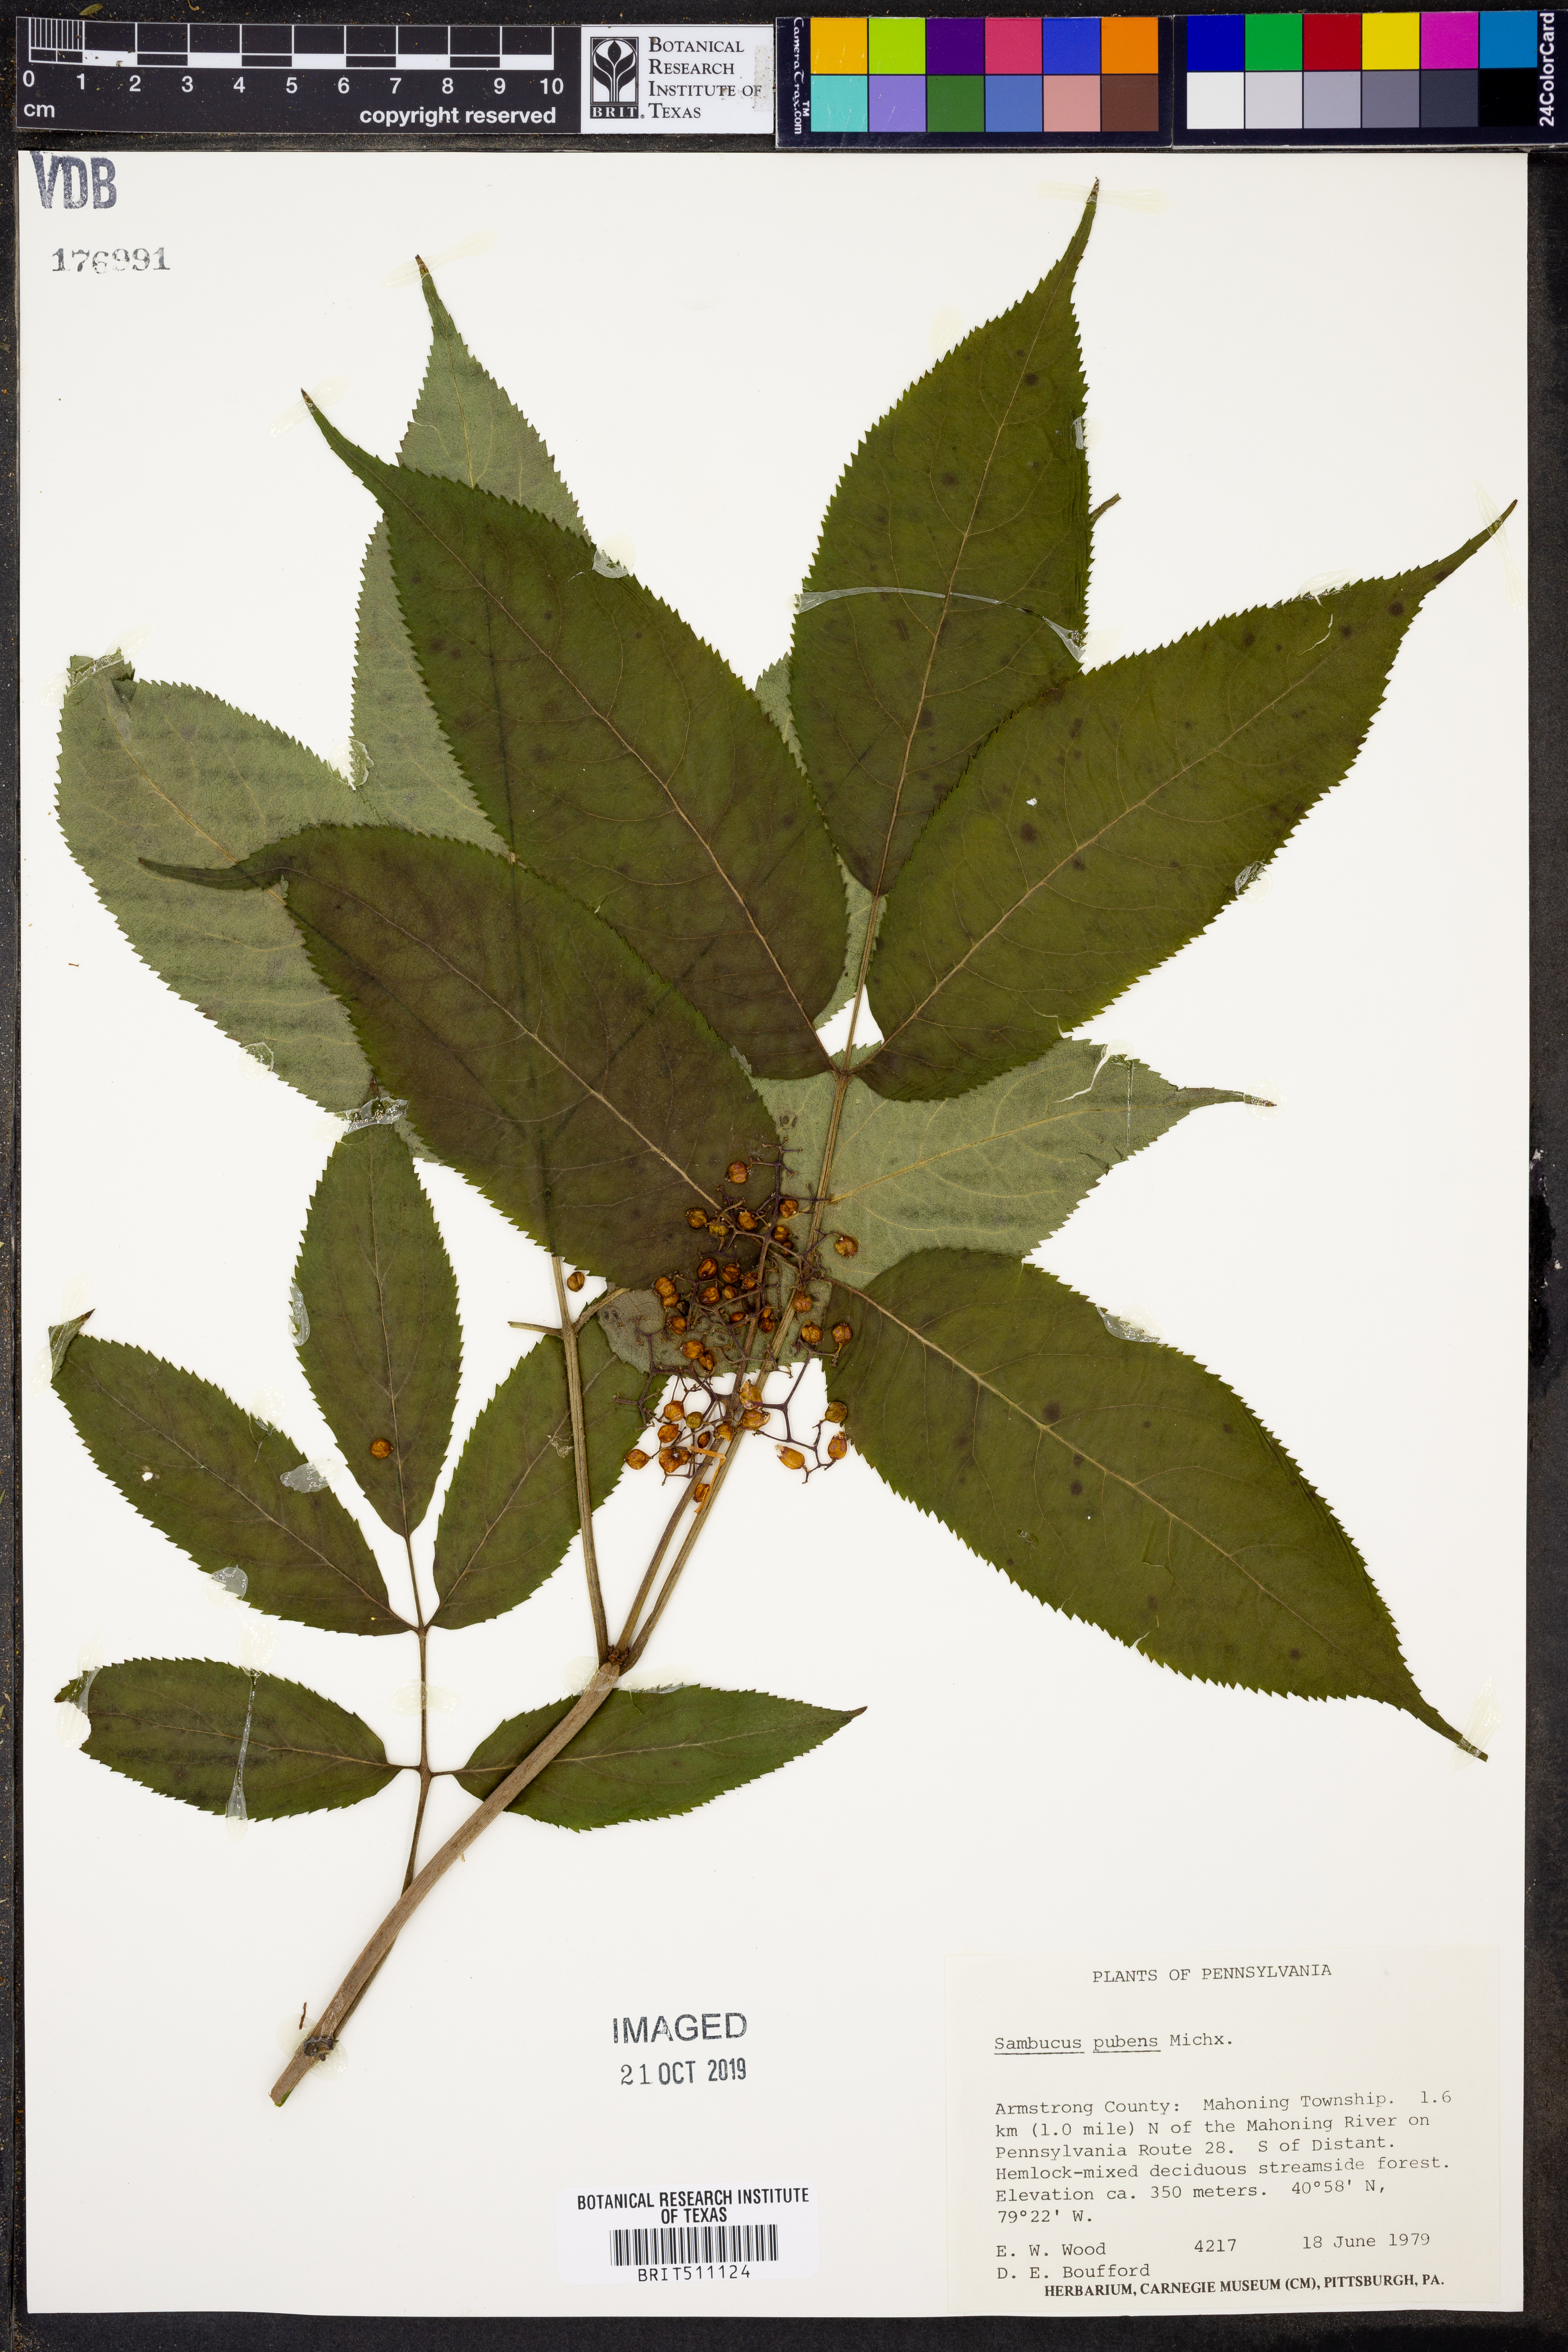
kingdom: Plantae
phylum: Tracheophyta
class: Magnoliopsida
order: Dipsacales
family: Viburnaceae
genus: Sambucus
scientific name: Sambucus racemosa
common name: Red-berried elder
